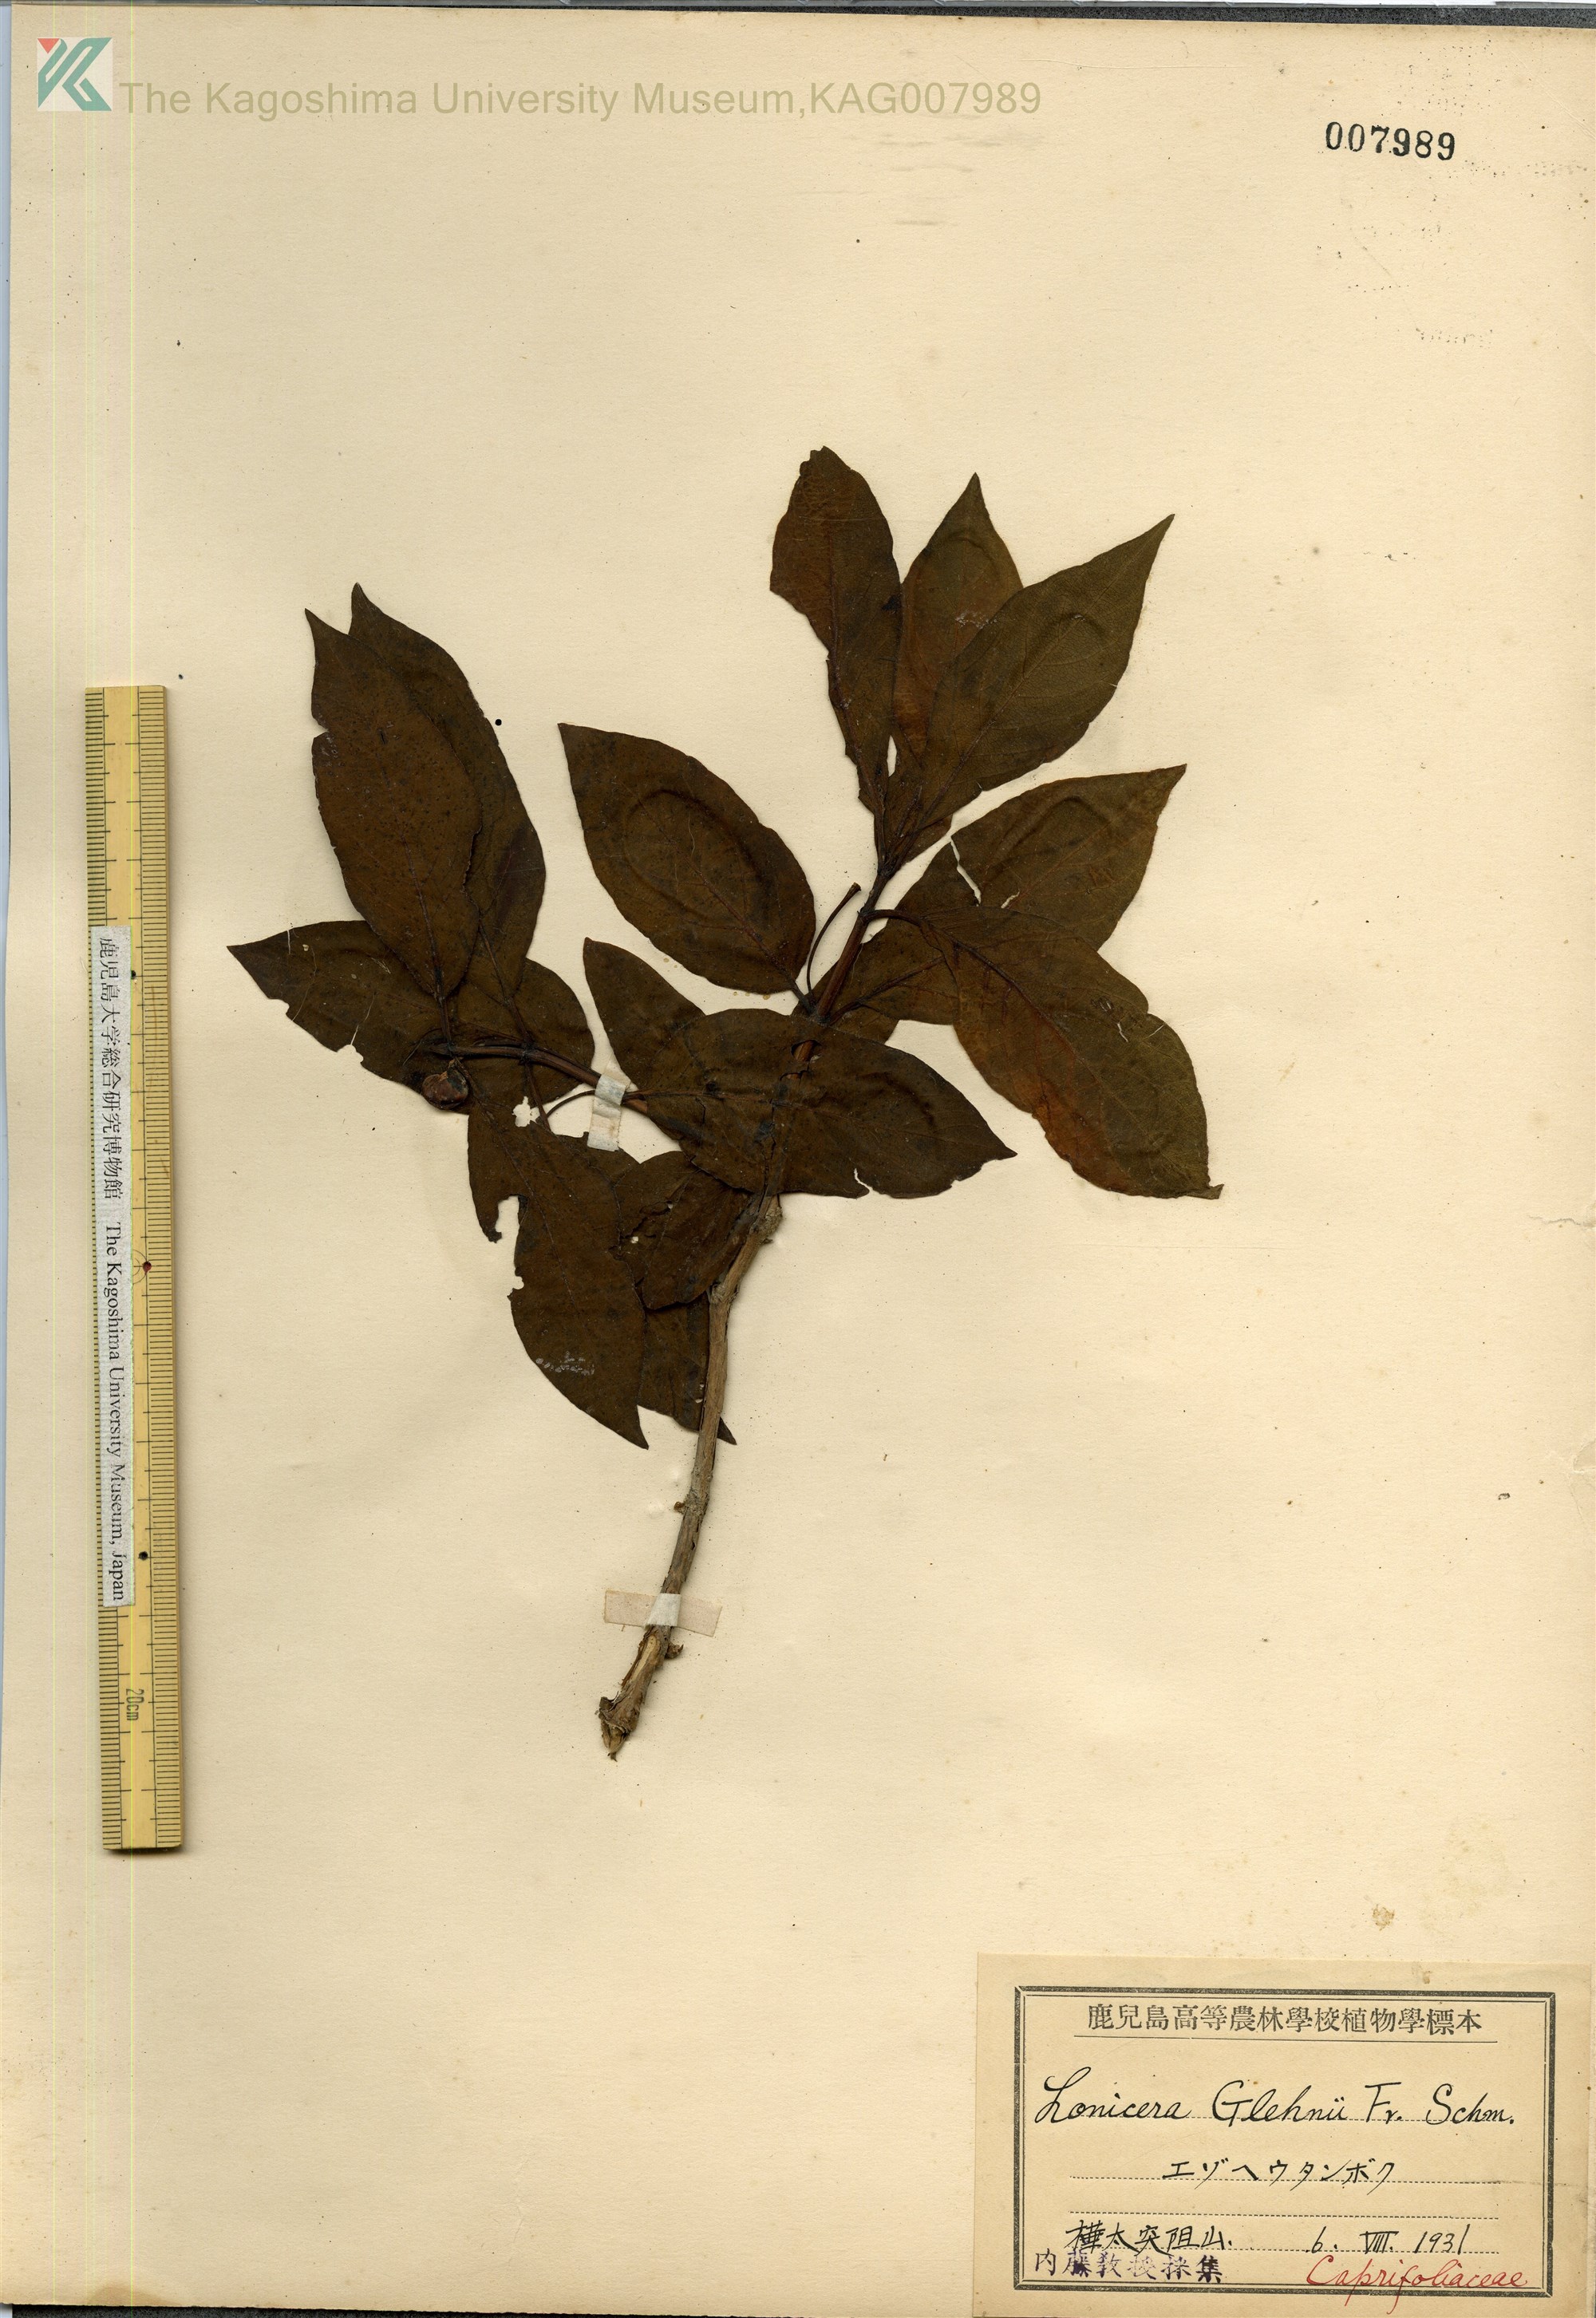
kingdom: Plantae
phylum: Tracheophyta
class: Magnoliopsida
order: Dipsacales
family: Caprifoliaceae
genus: Lonicera
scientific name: Lonicera alpigena
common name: Alpine honeysuckle
